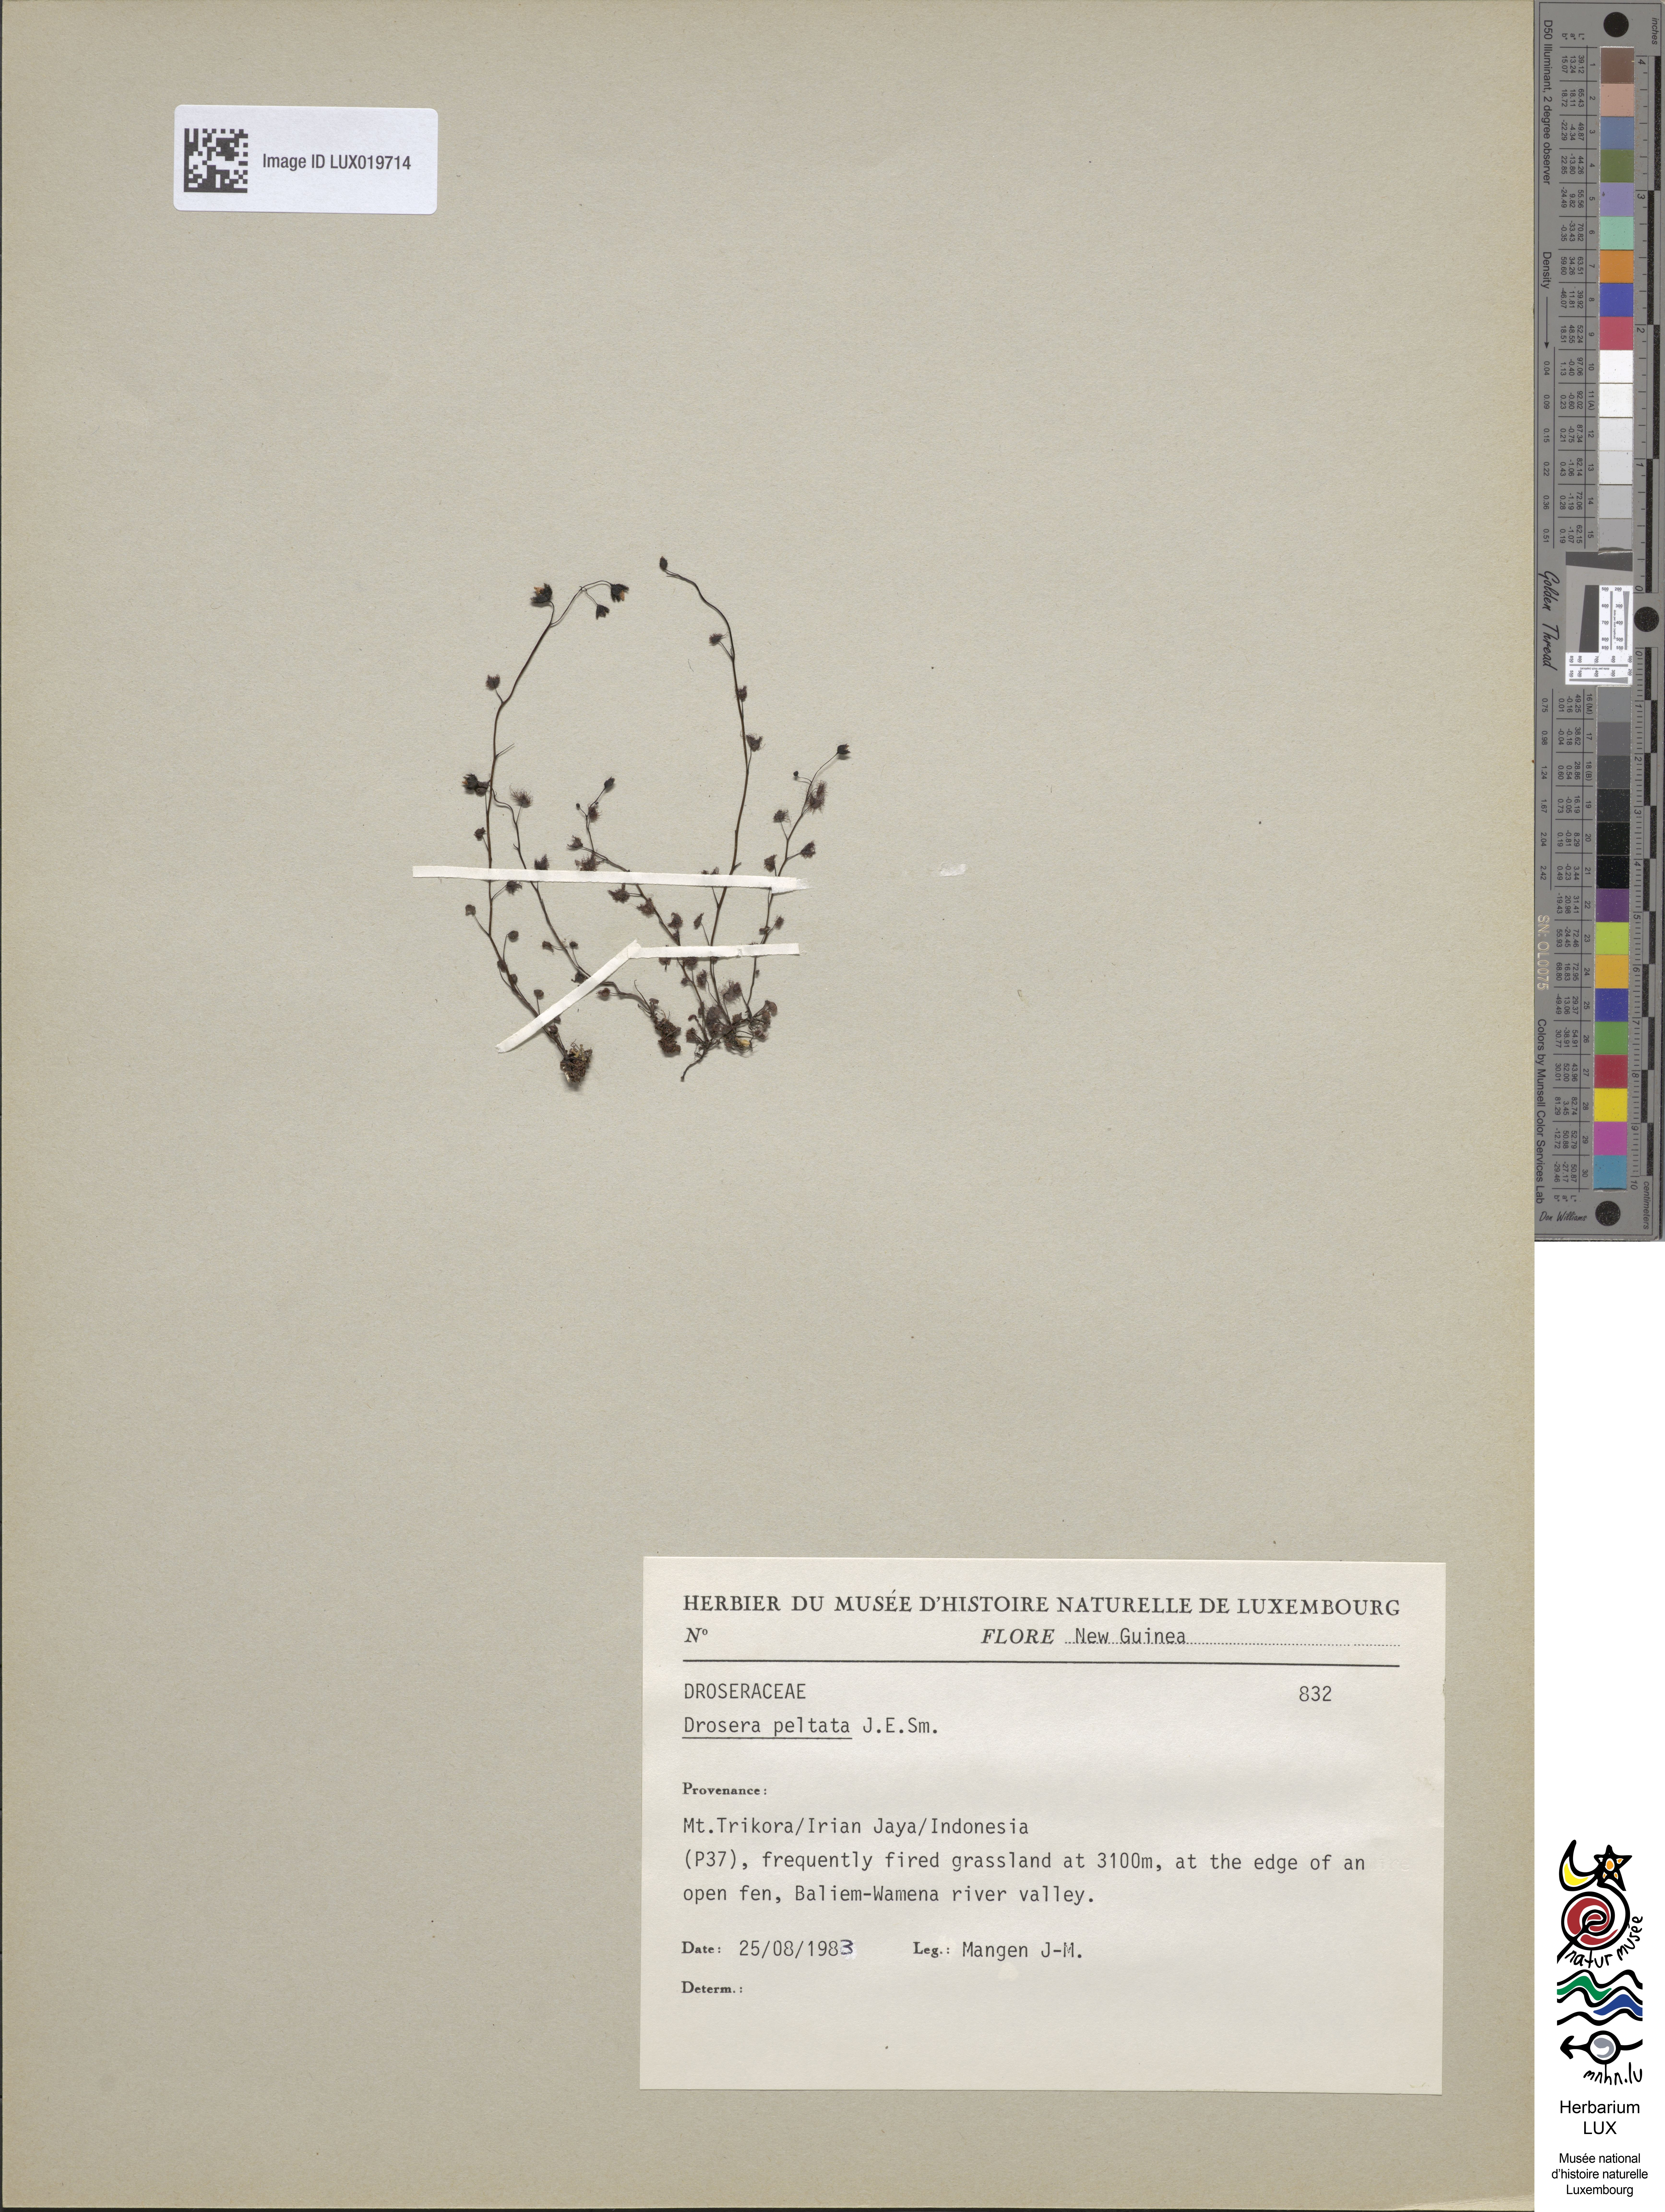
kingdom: Plantae
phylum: Tracheophyta
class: Magnoliopsida
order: Caryophyllales
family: Droseraceae
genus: Drosera
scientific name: Drosera peltata
